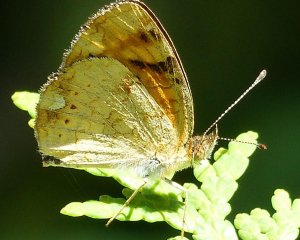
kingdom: Animalia
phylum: Arthropoda
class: Insecta
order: Lepidoptera
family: Nymphalidae
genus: Phyciodes
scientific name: Phyciodes batesii
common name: Tawny Crescent
